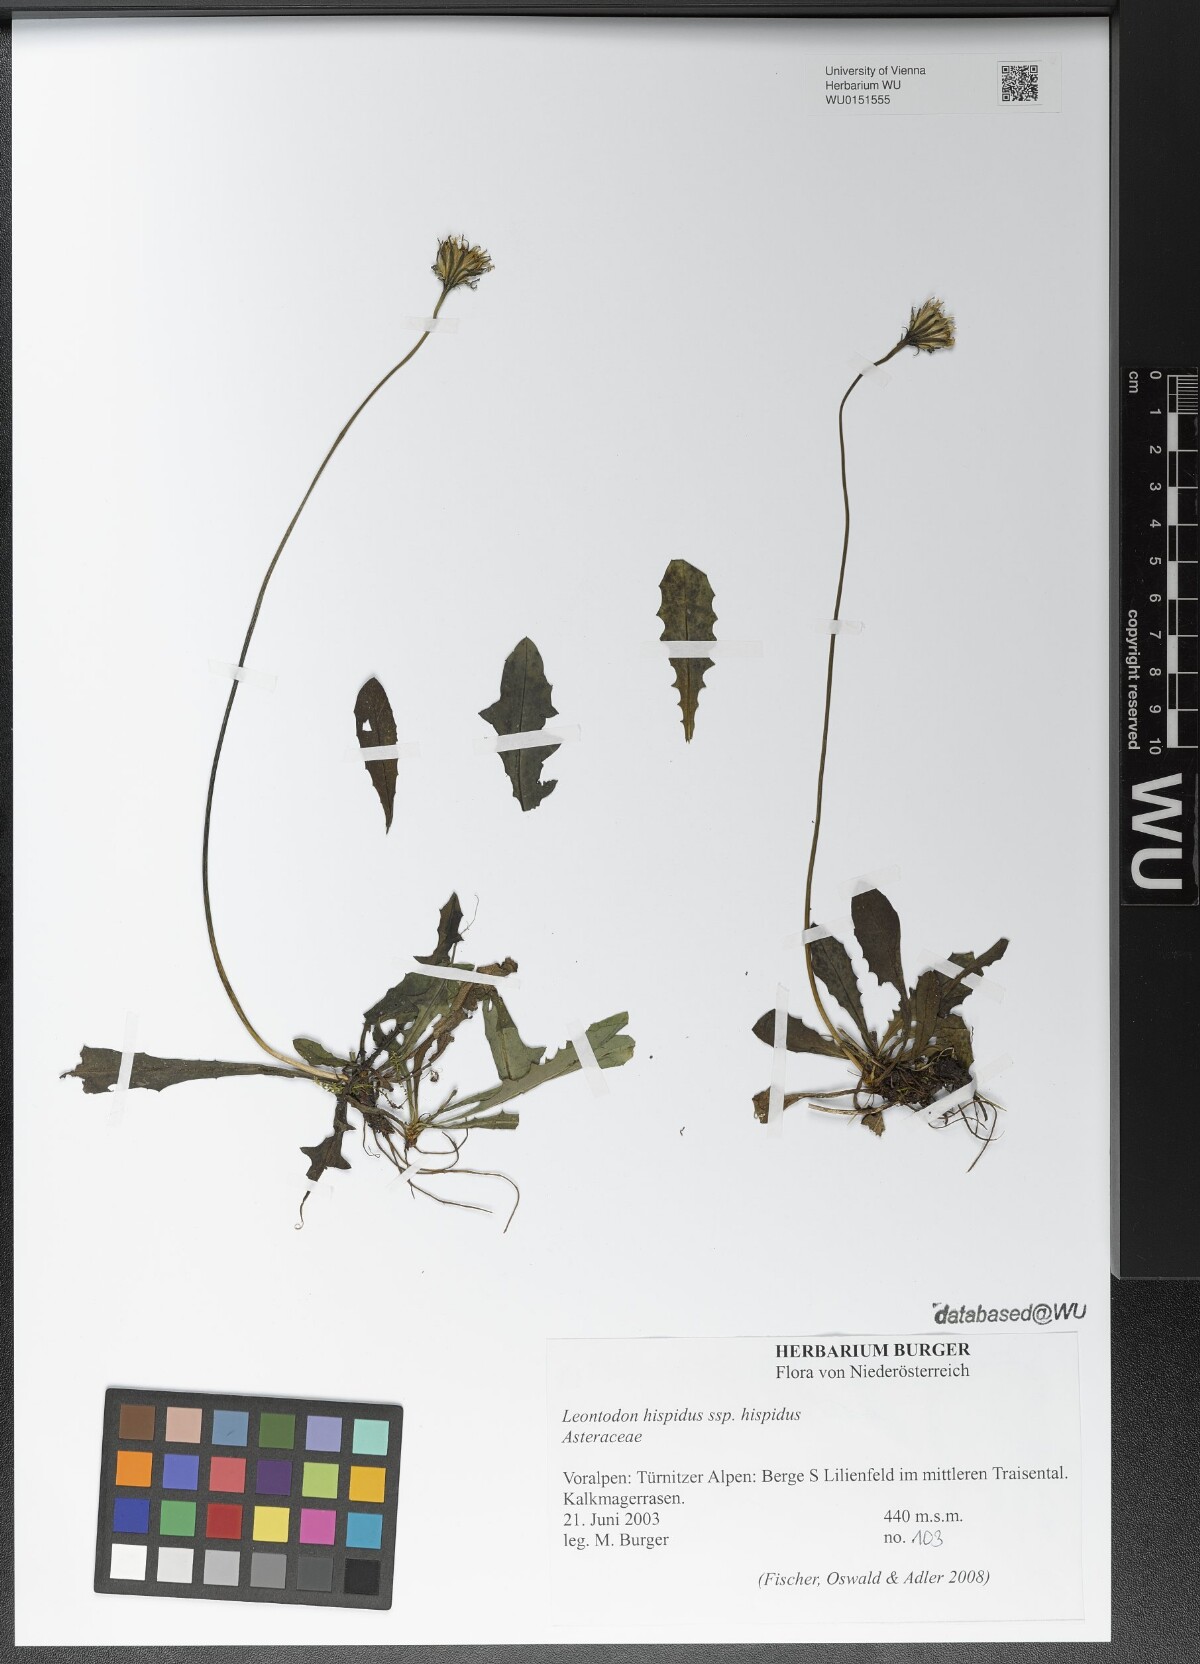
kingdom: Plantae
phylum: Tracheophyta
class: Magnoliopsida
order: Asterales
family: Asteraceae
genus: Leontodon
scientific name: Leontodon hispidus
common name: Rough hawkbit
